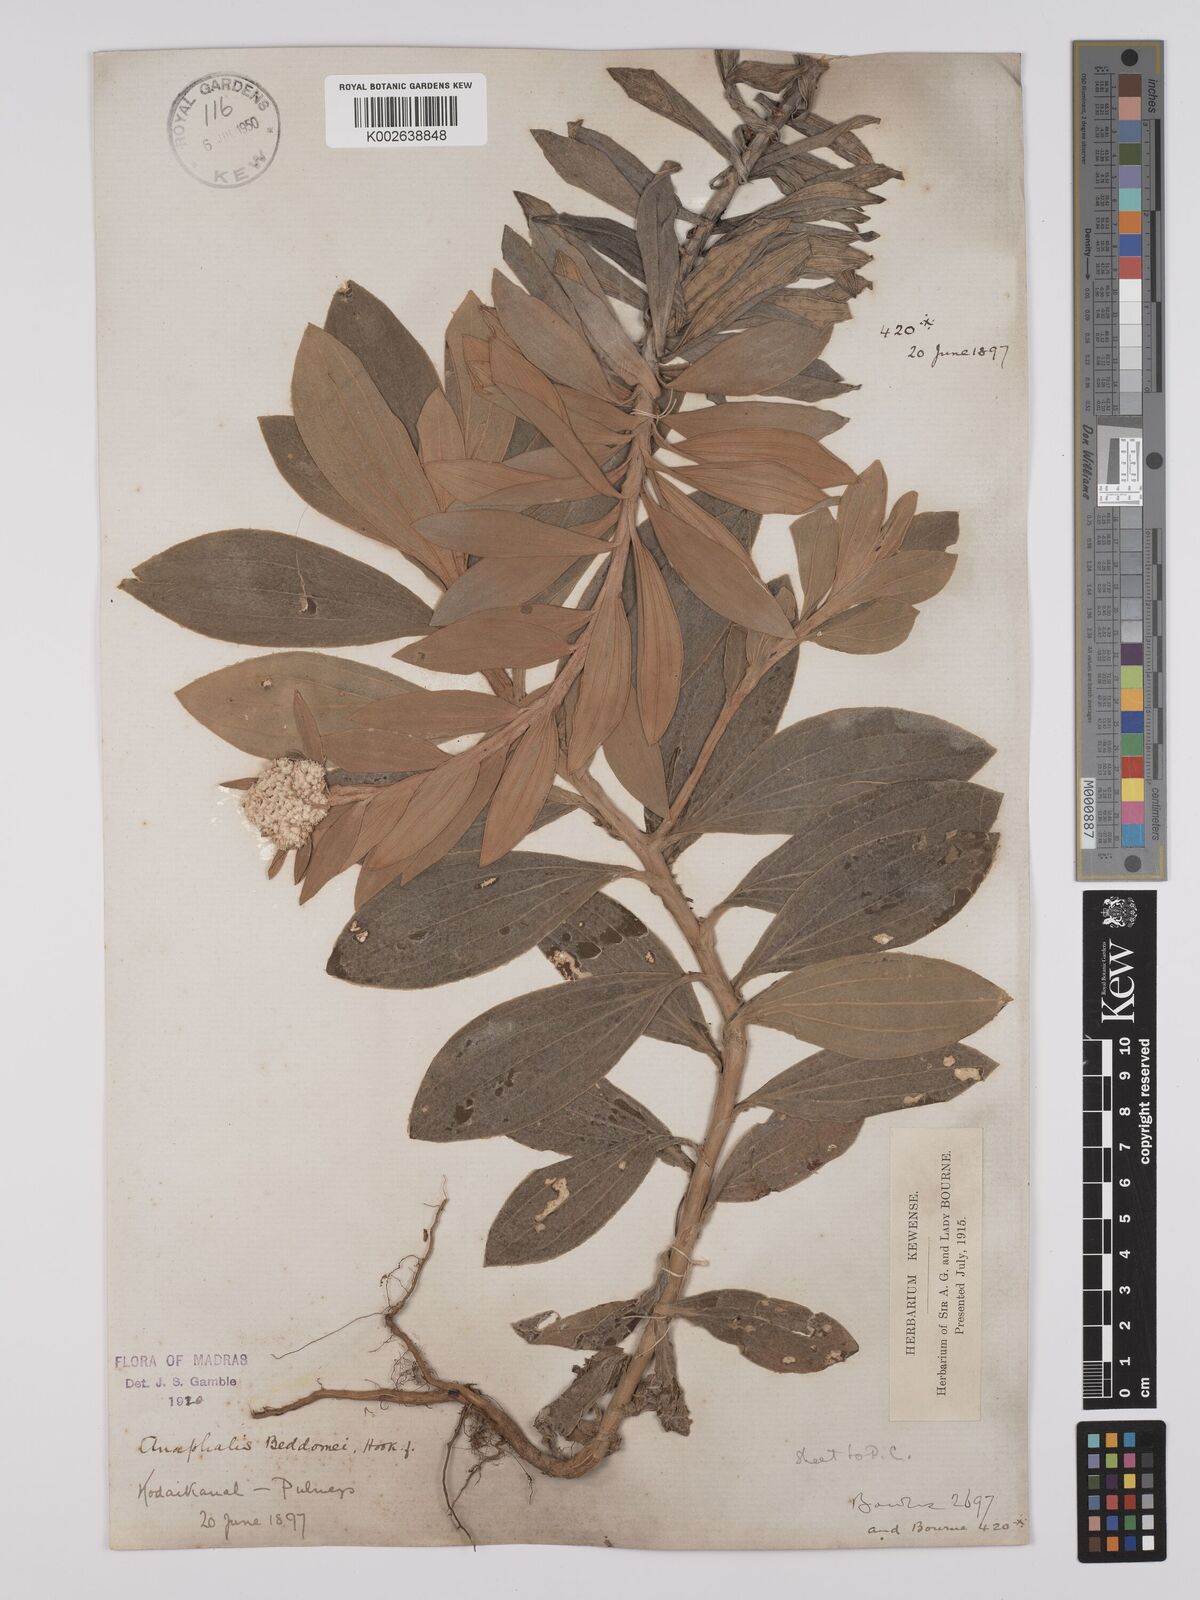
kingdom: Plantae
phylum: Tracheophyta
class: Magnoliopsida
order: Asterales
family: Asteraceae
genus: Anaphalis
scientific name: Anaphalis beddomei
